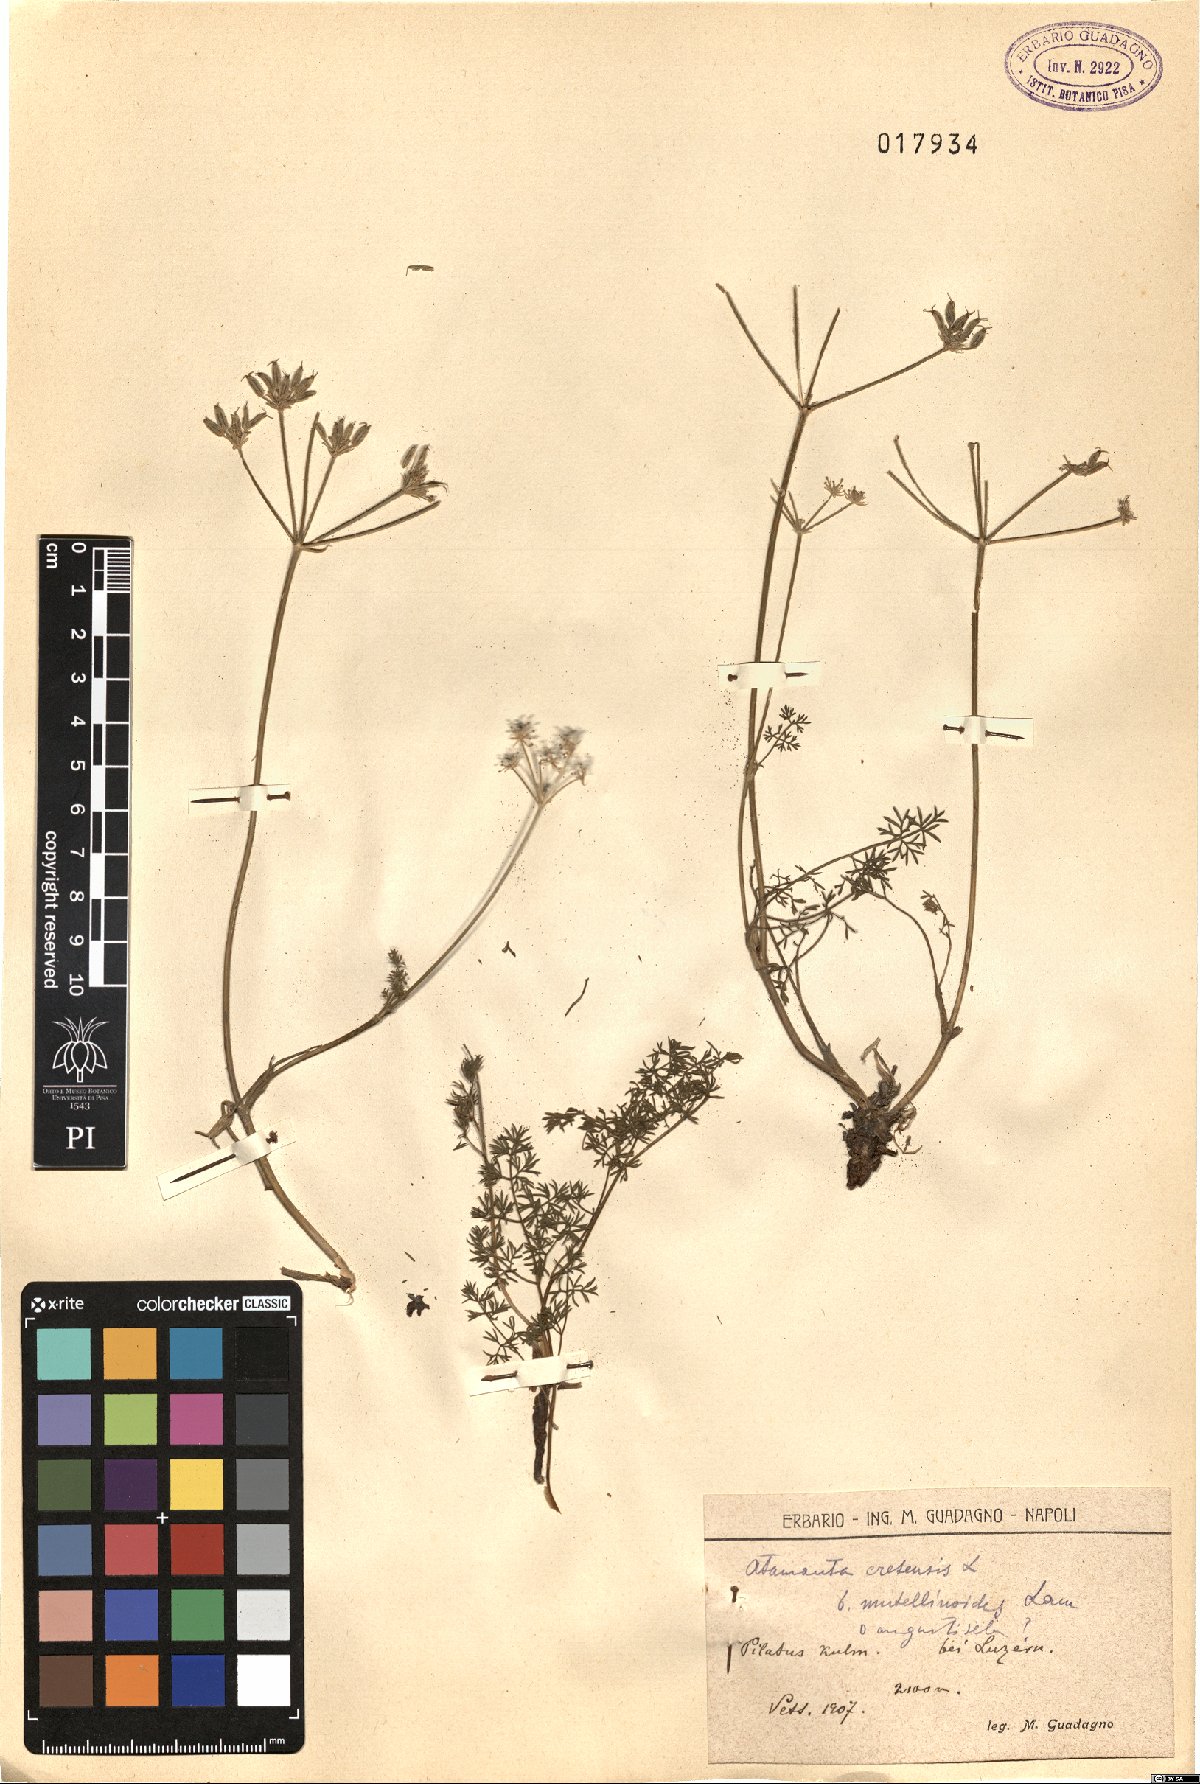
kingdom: Plantae
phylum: Tracheophyta
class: Magnoliopsida
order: Apiales
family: Apiaceae
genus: Athamanta
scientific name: Athamanta cretensis
